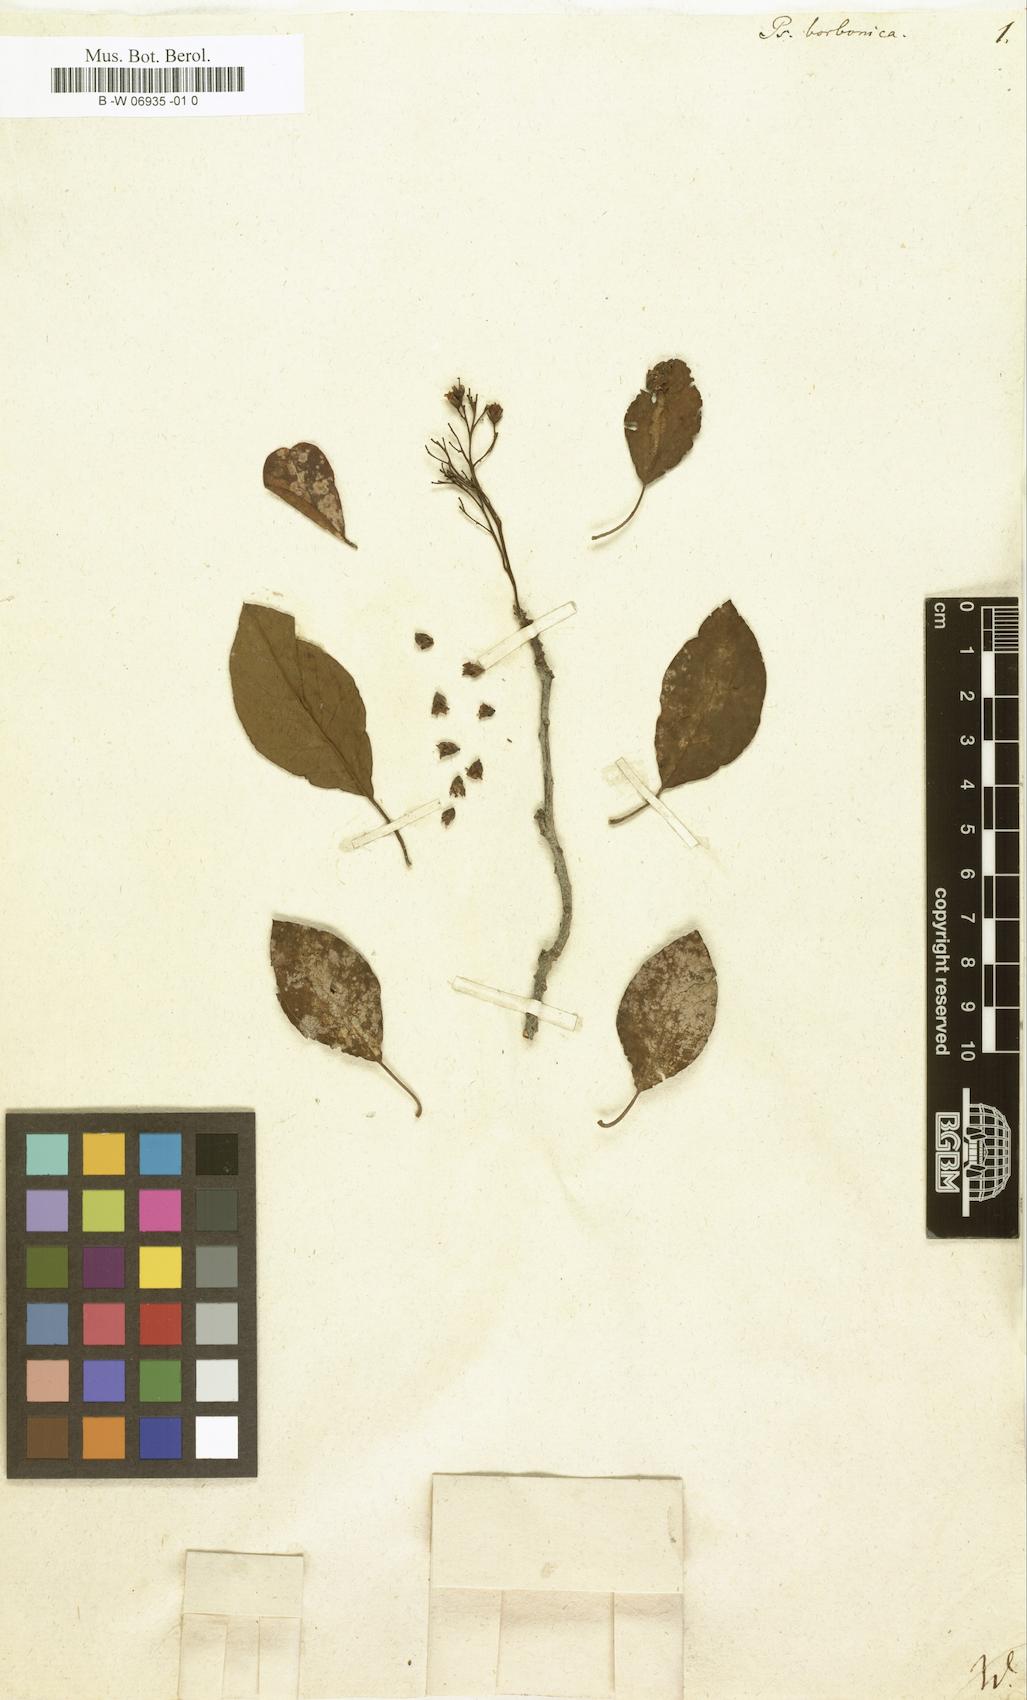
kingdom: Plantae
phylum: Tracheophyta
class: Magnoliopsida
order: Gentianales
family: Rubiaceae
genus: Psychotria
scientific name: Psychotria borbonica
